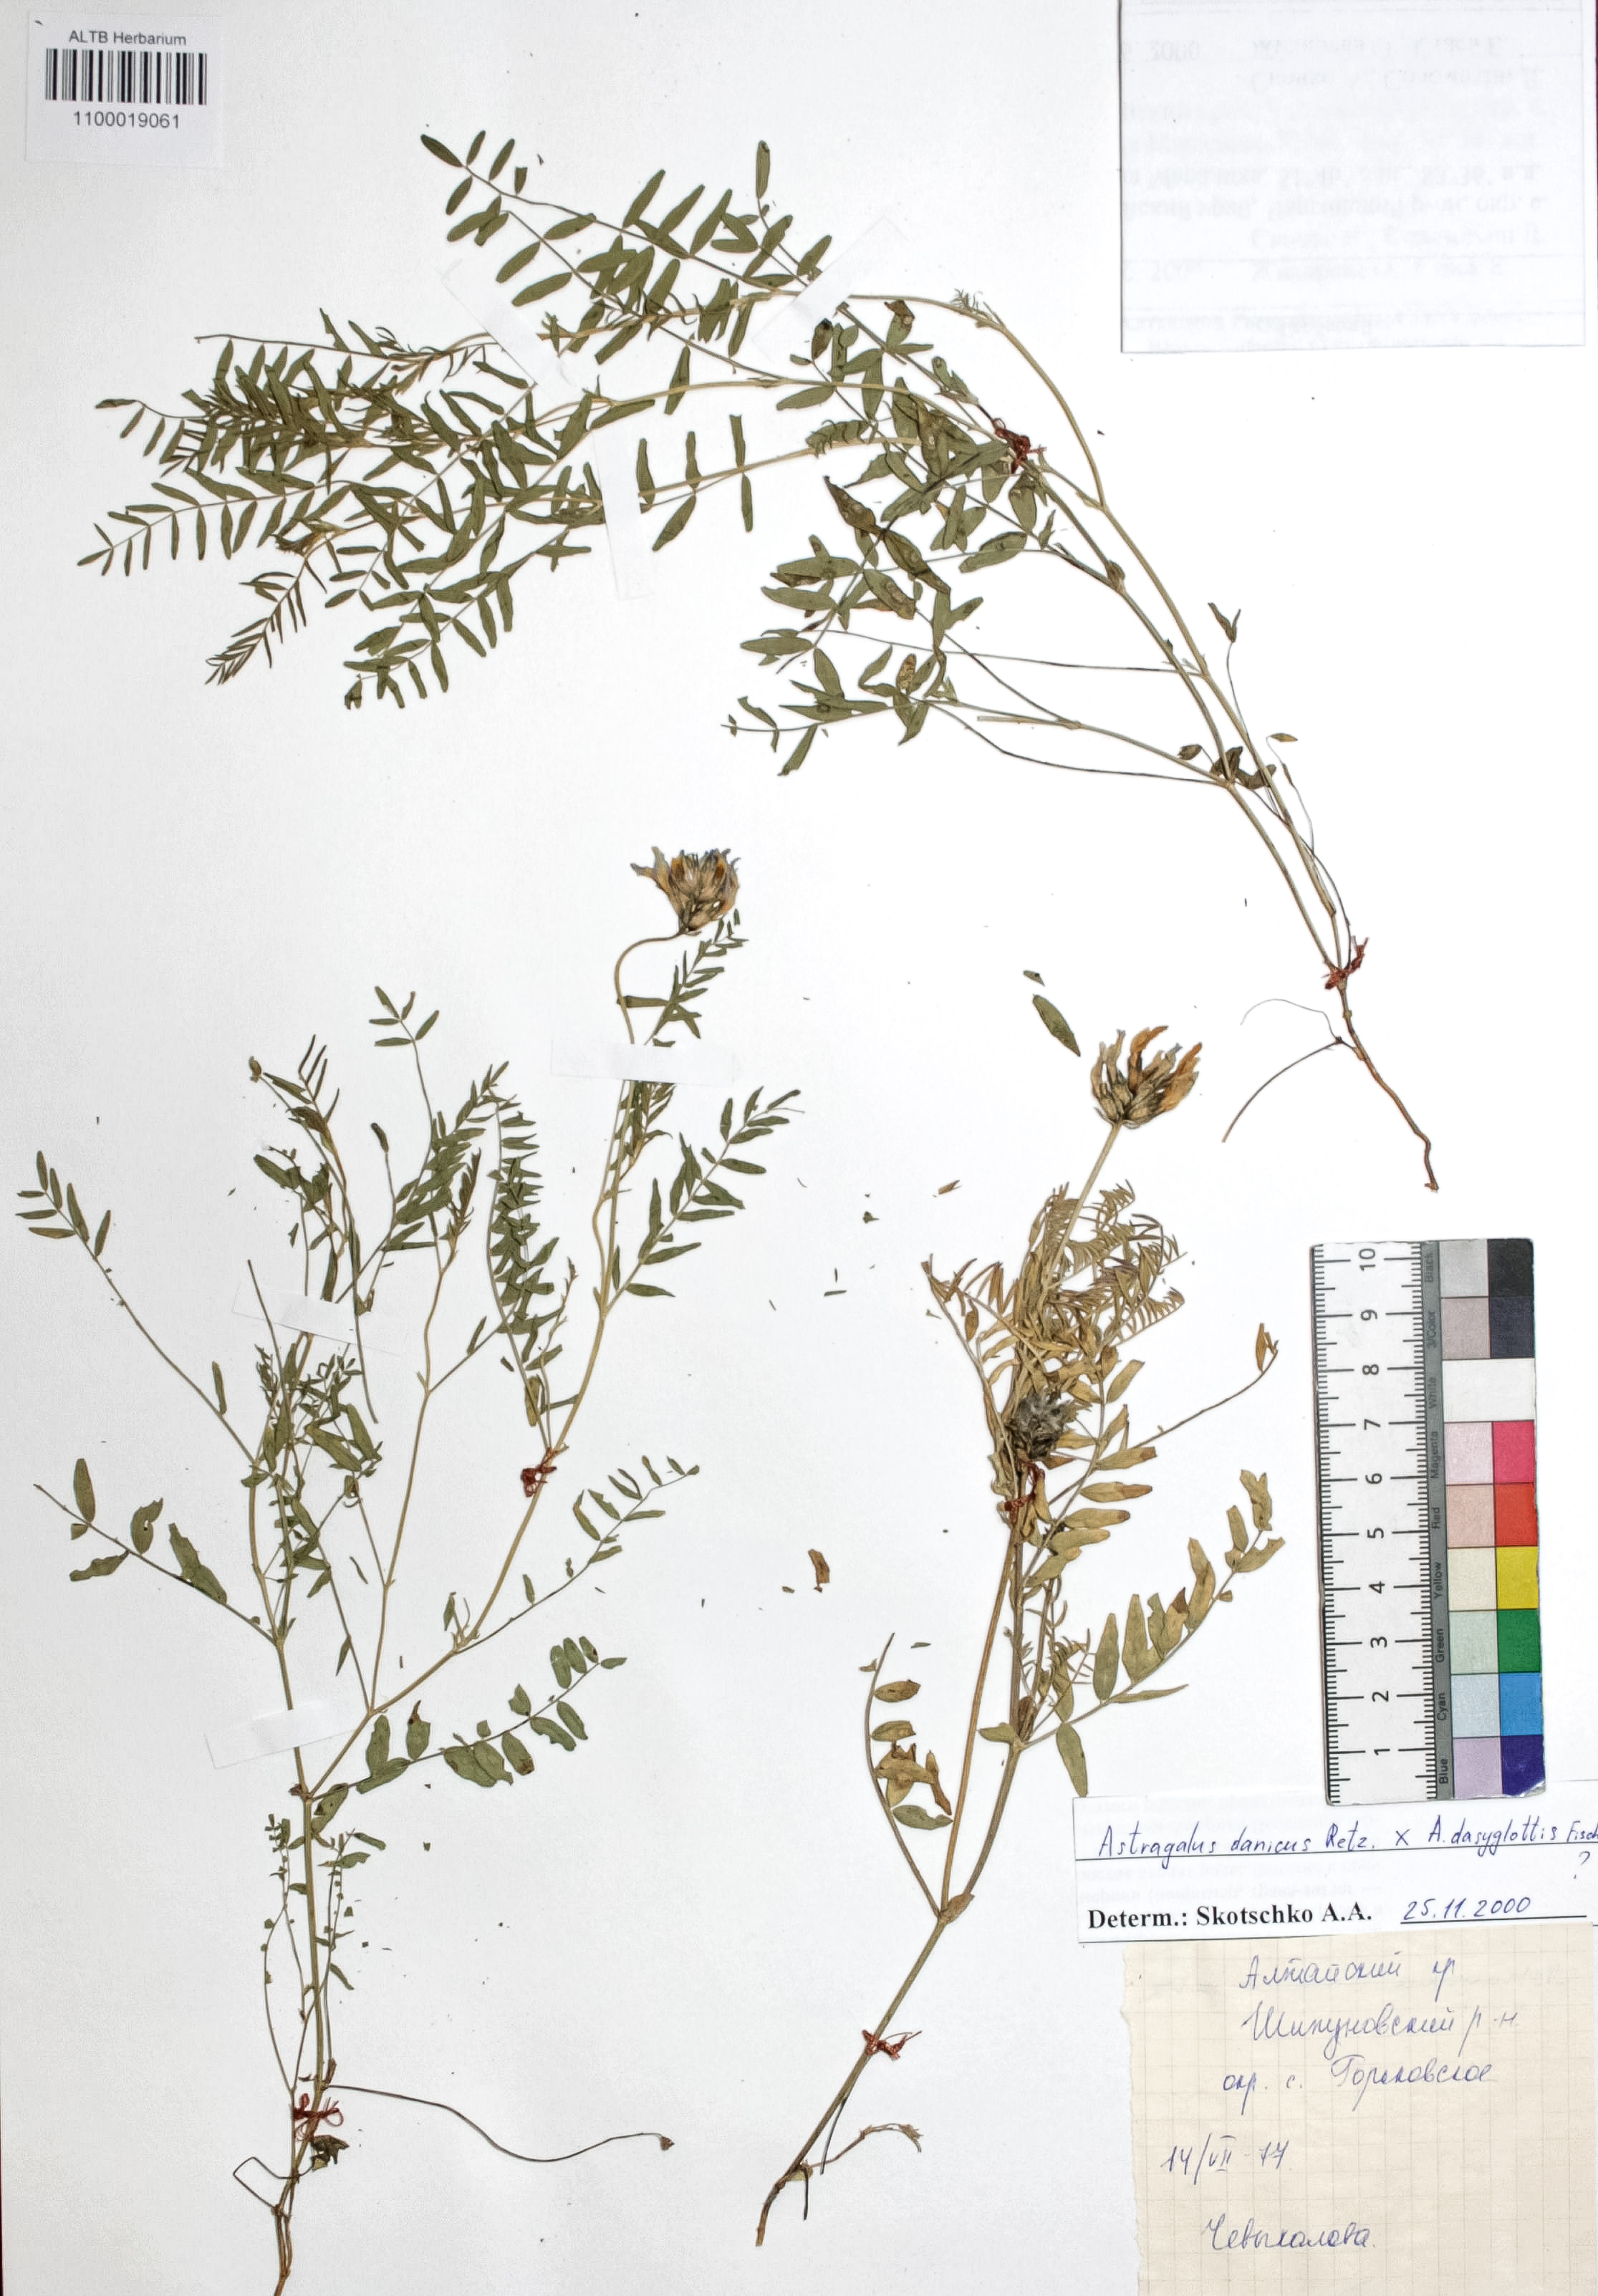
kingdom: Plantae
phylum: Tracheophyta
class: Magnoliopsida
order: Fabales
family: Fabaceae
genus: Astragalus
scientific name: Astragalus danicus
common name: Purple milk-vetch
